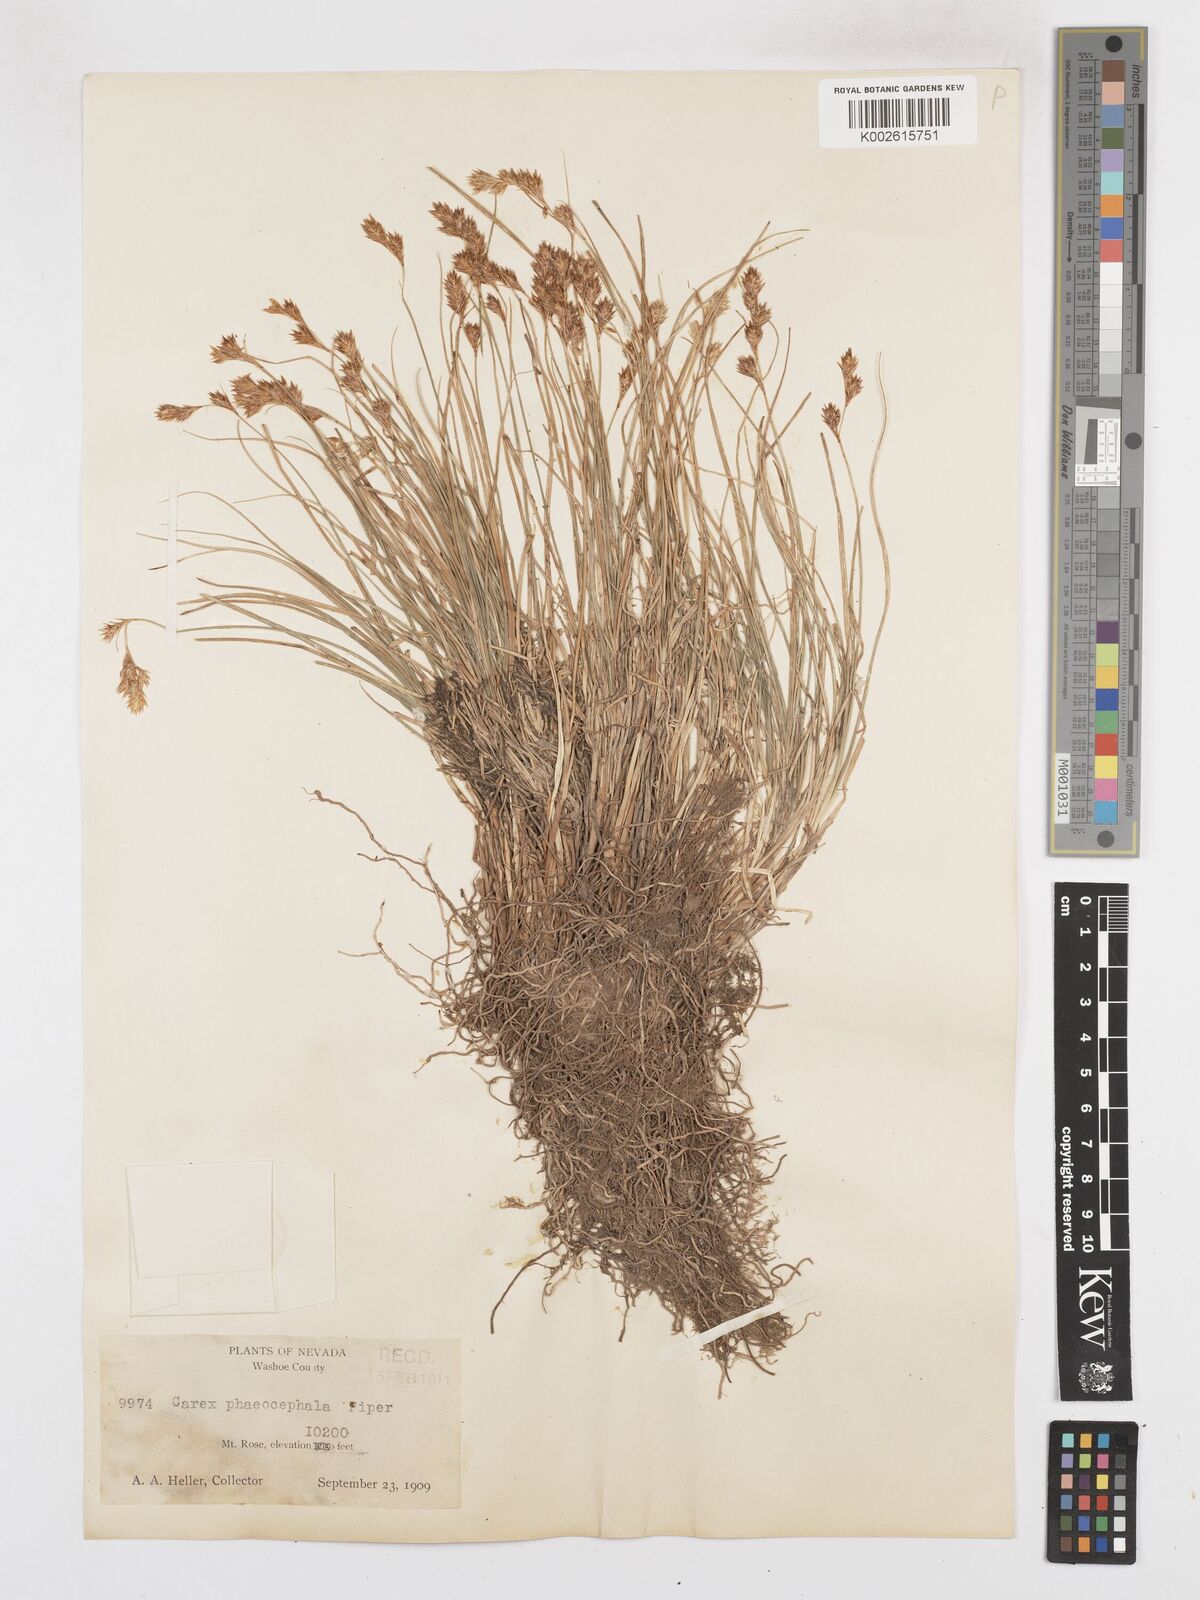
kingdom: Plantae
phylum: Tracheophyta
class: Liliopsida
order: Poales
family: Cyperaceae
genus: Carex
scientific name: Carex phaeocephala
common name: Brown-head sedge
